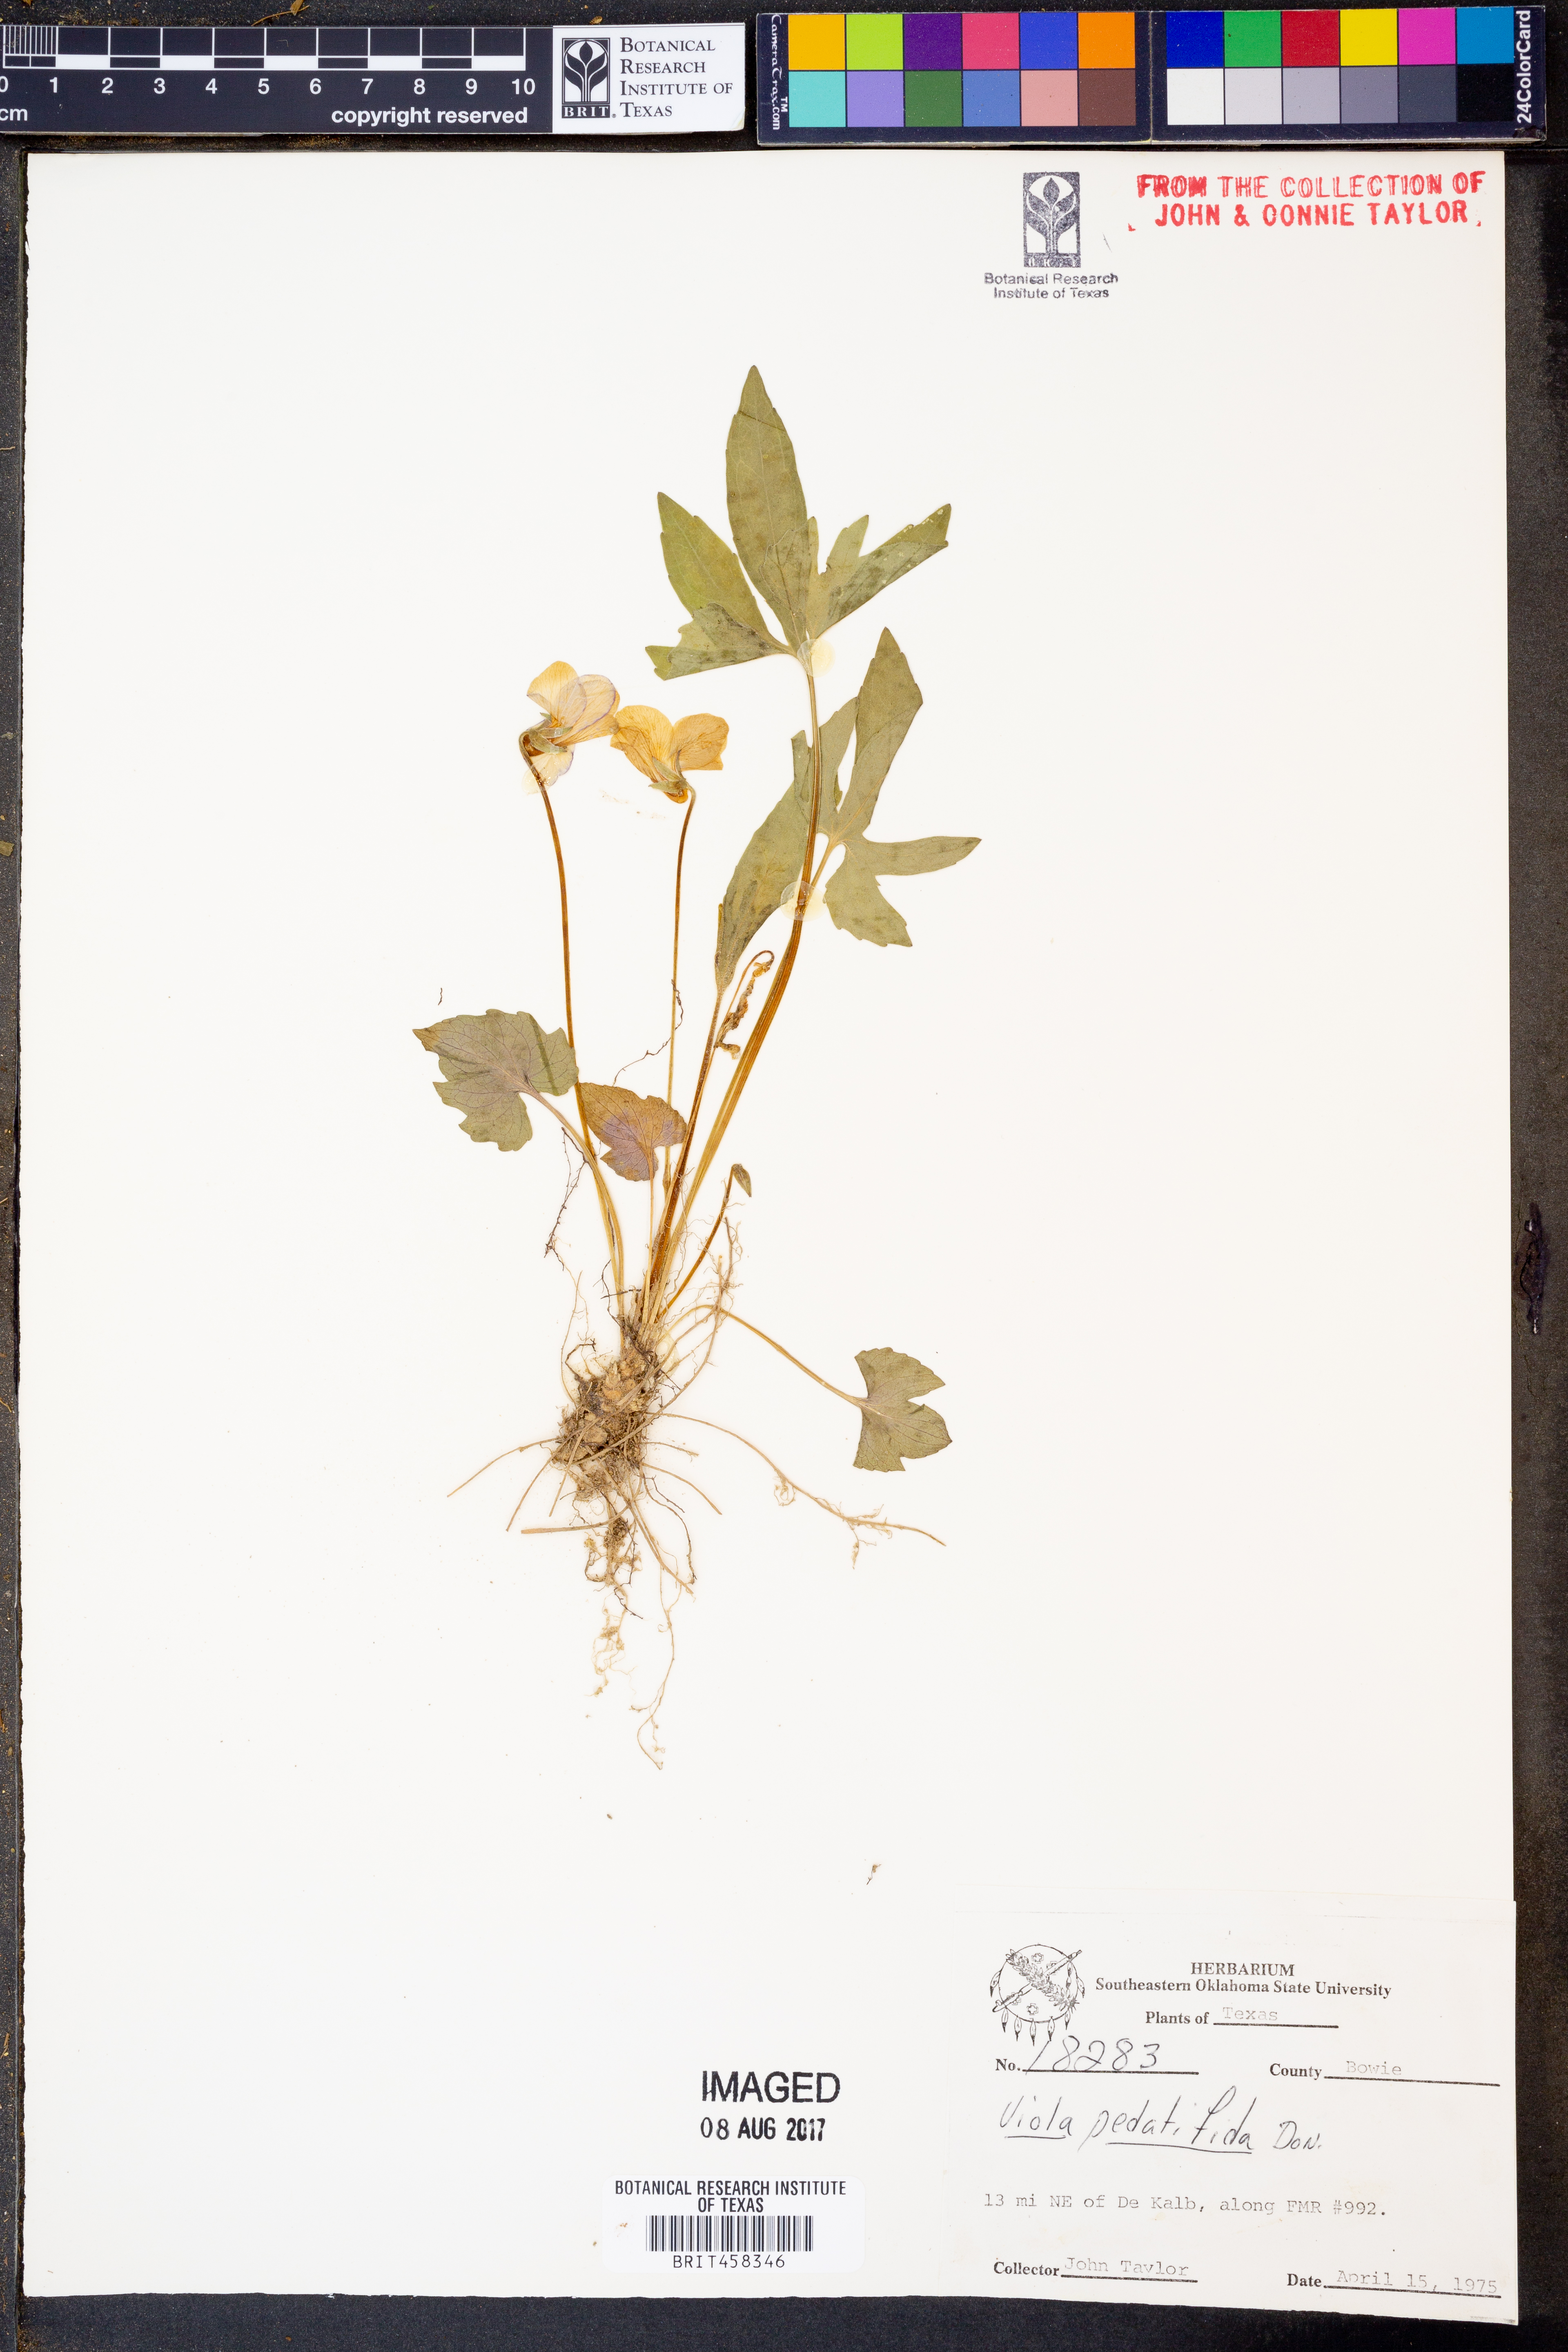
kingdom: Plantae
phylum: Tracheophyta
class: Magnoliopsida
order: Malpighiales
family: Violaceae
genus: Viola
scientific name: Viola pedatifida
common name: Prairie violet
